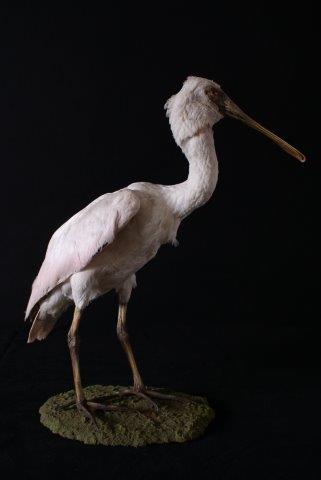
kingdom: Animalia
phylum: Chordata
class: Aves
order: Pelecaniformes
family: Threskiornithidae
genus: Platalea
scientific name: Platalea leucorodia
